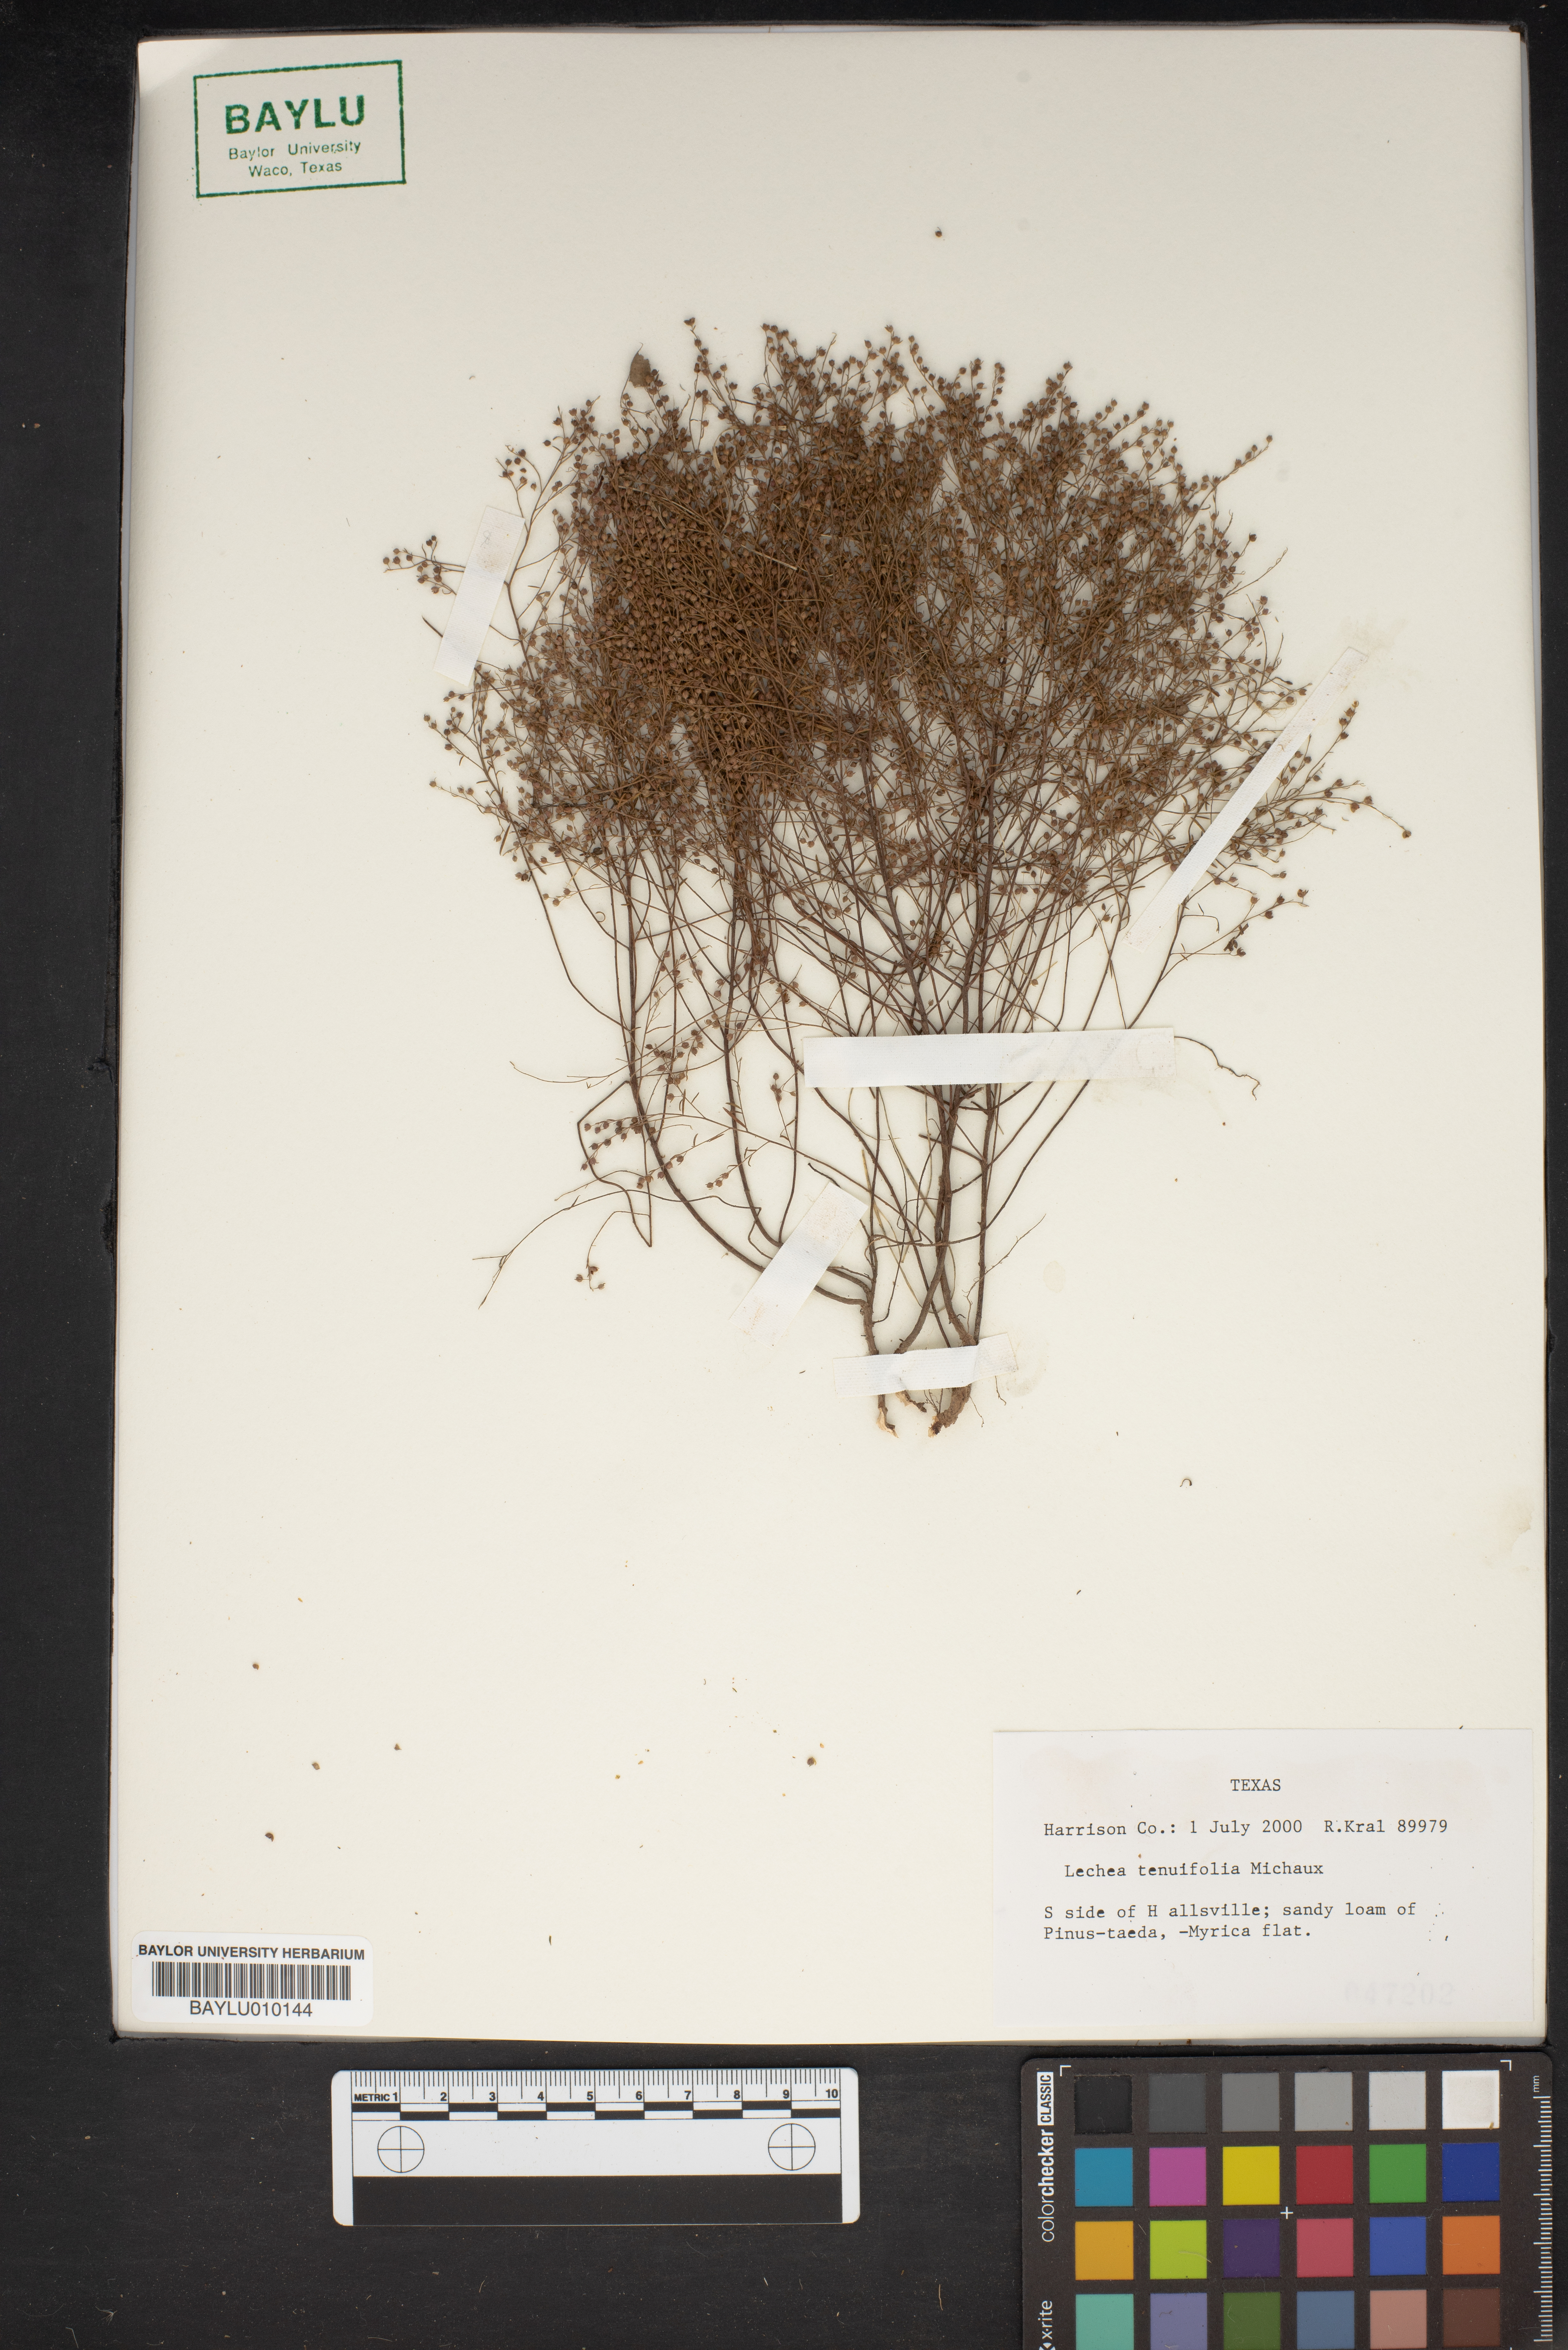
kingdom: Plantae
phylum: Tracheophyta
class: Magnoliopsida
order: Malvales
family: Cistaceae
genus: Lechea
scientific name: Lechea tenuifolia
